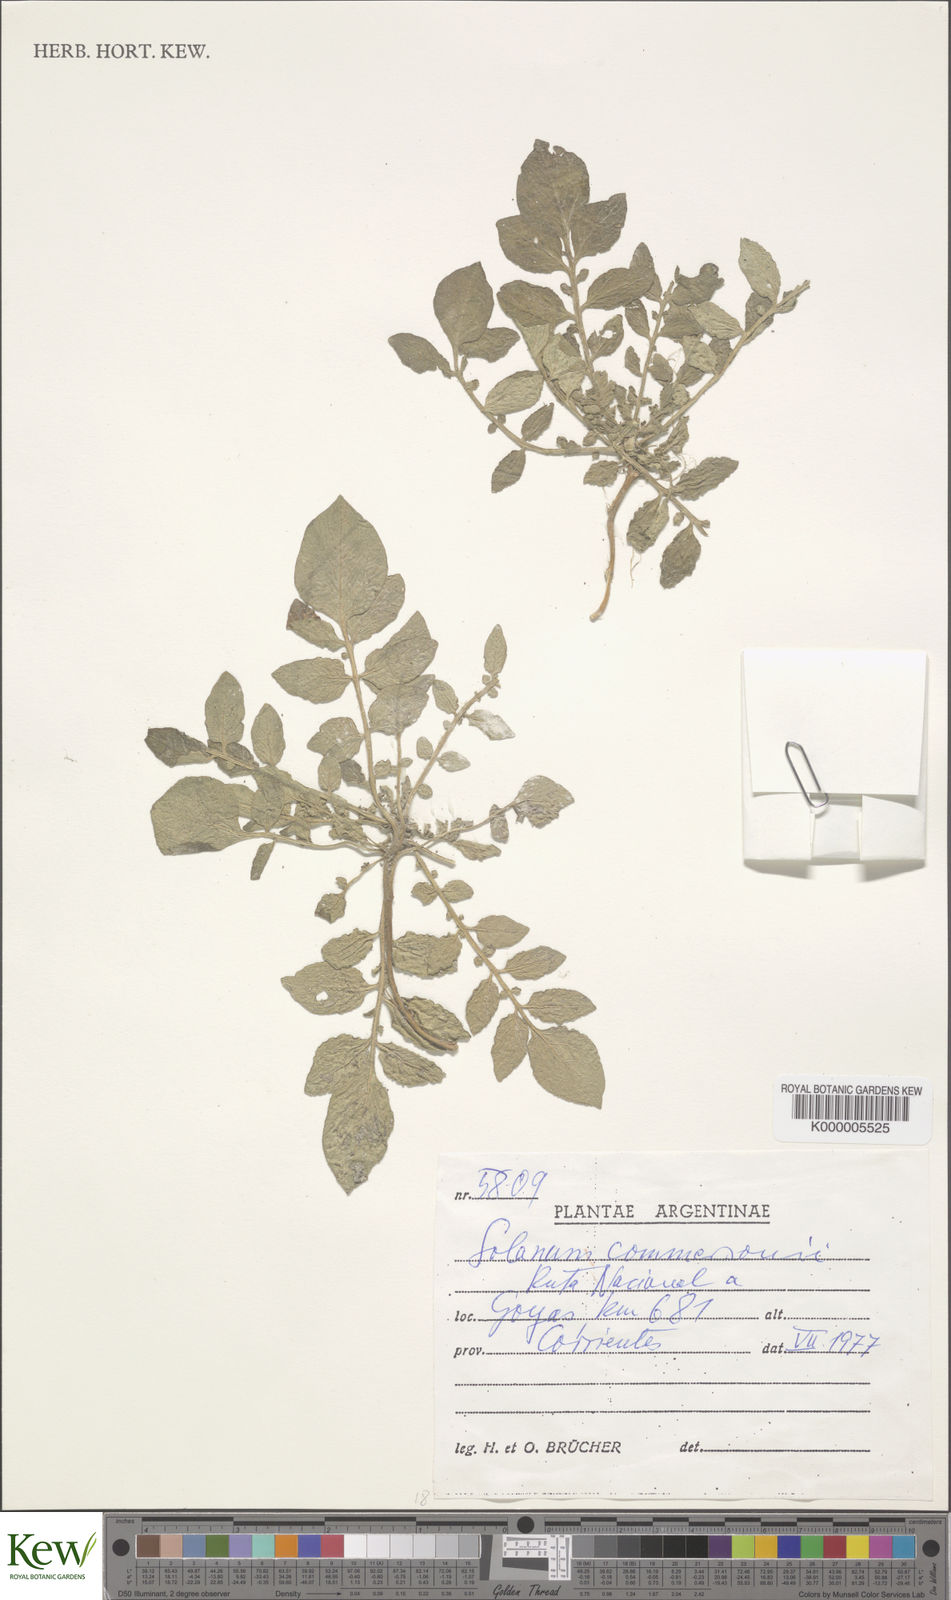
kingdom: Plantae
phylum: Tracheophyta
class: Magnoliopsida
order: Solanales
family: Solanaceae
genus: Solanum
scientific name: Solanum commersonii
